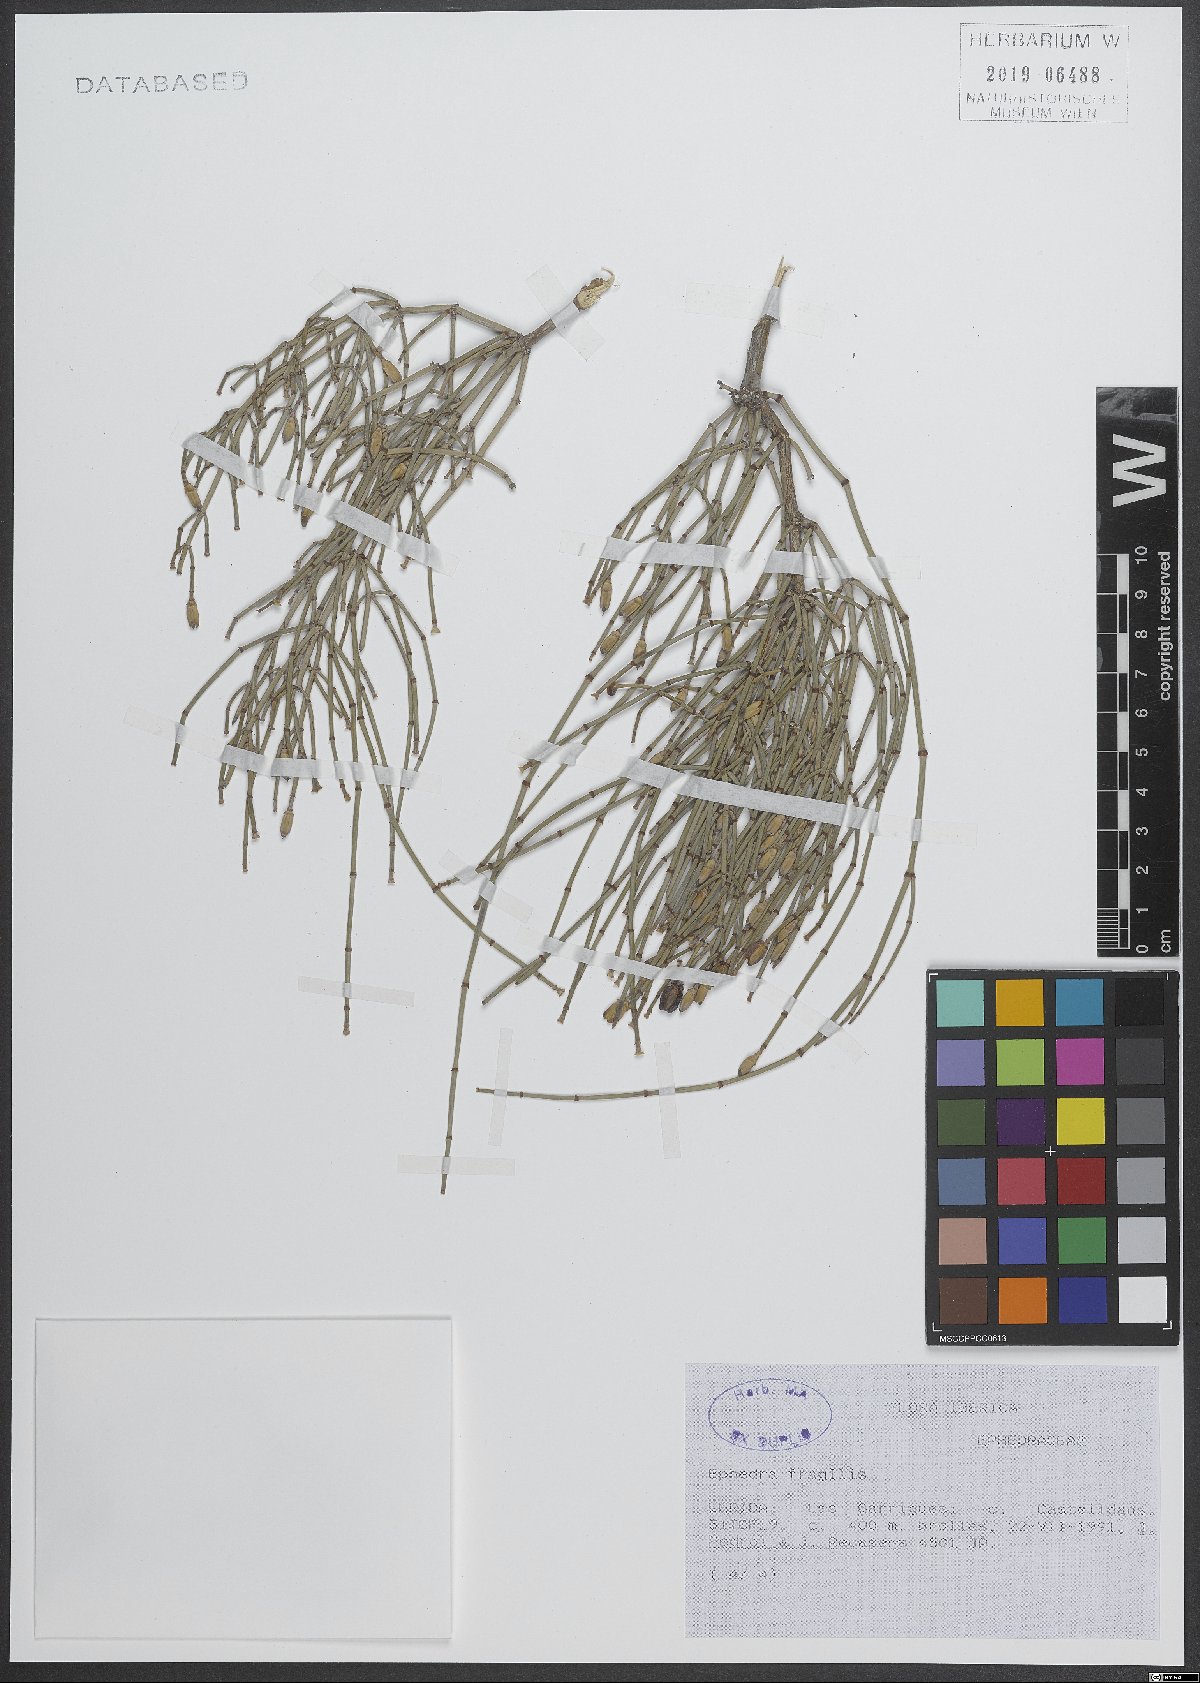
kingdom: Plantae
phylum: Tracheophyta
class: Gnetopsida
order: Ephedrales
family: Ephedraceae
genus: Ephedra
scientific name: Ephedra fragilis
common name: Joint pine
